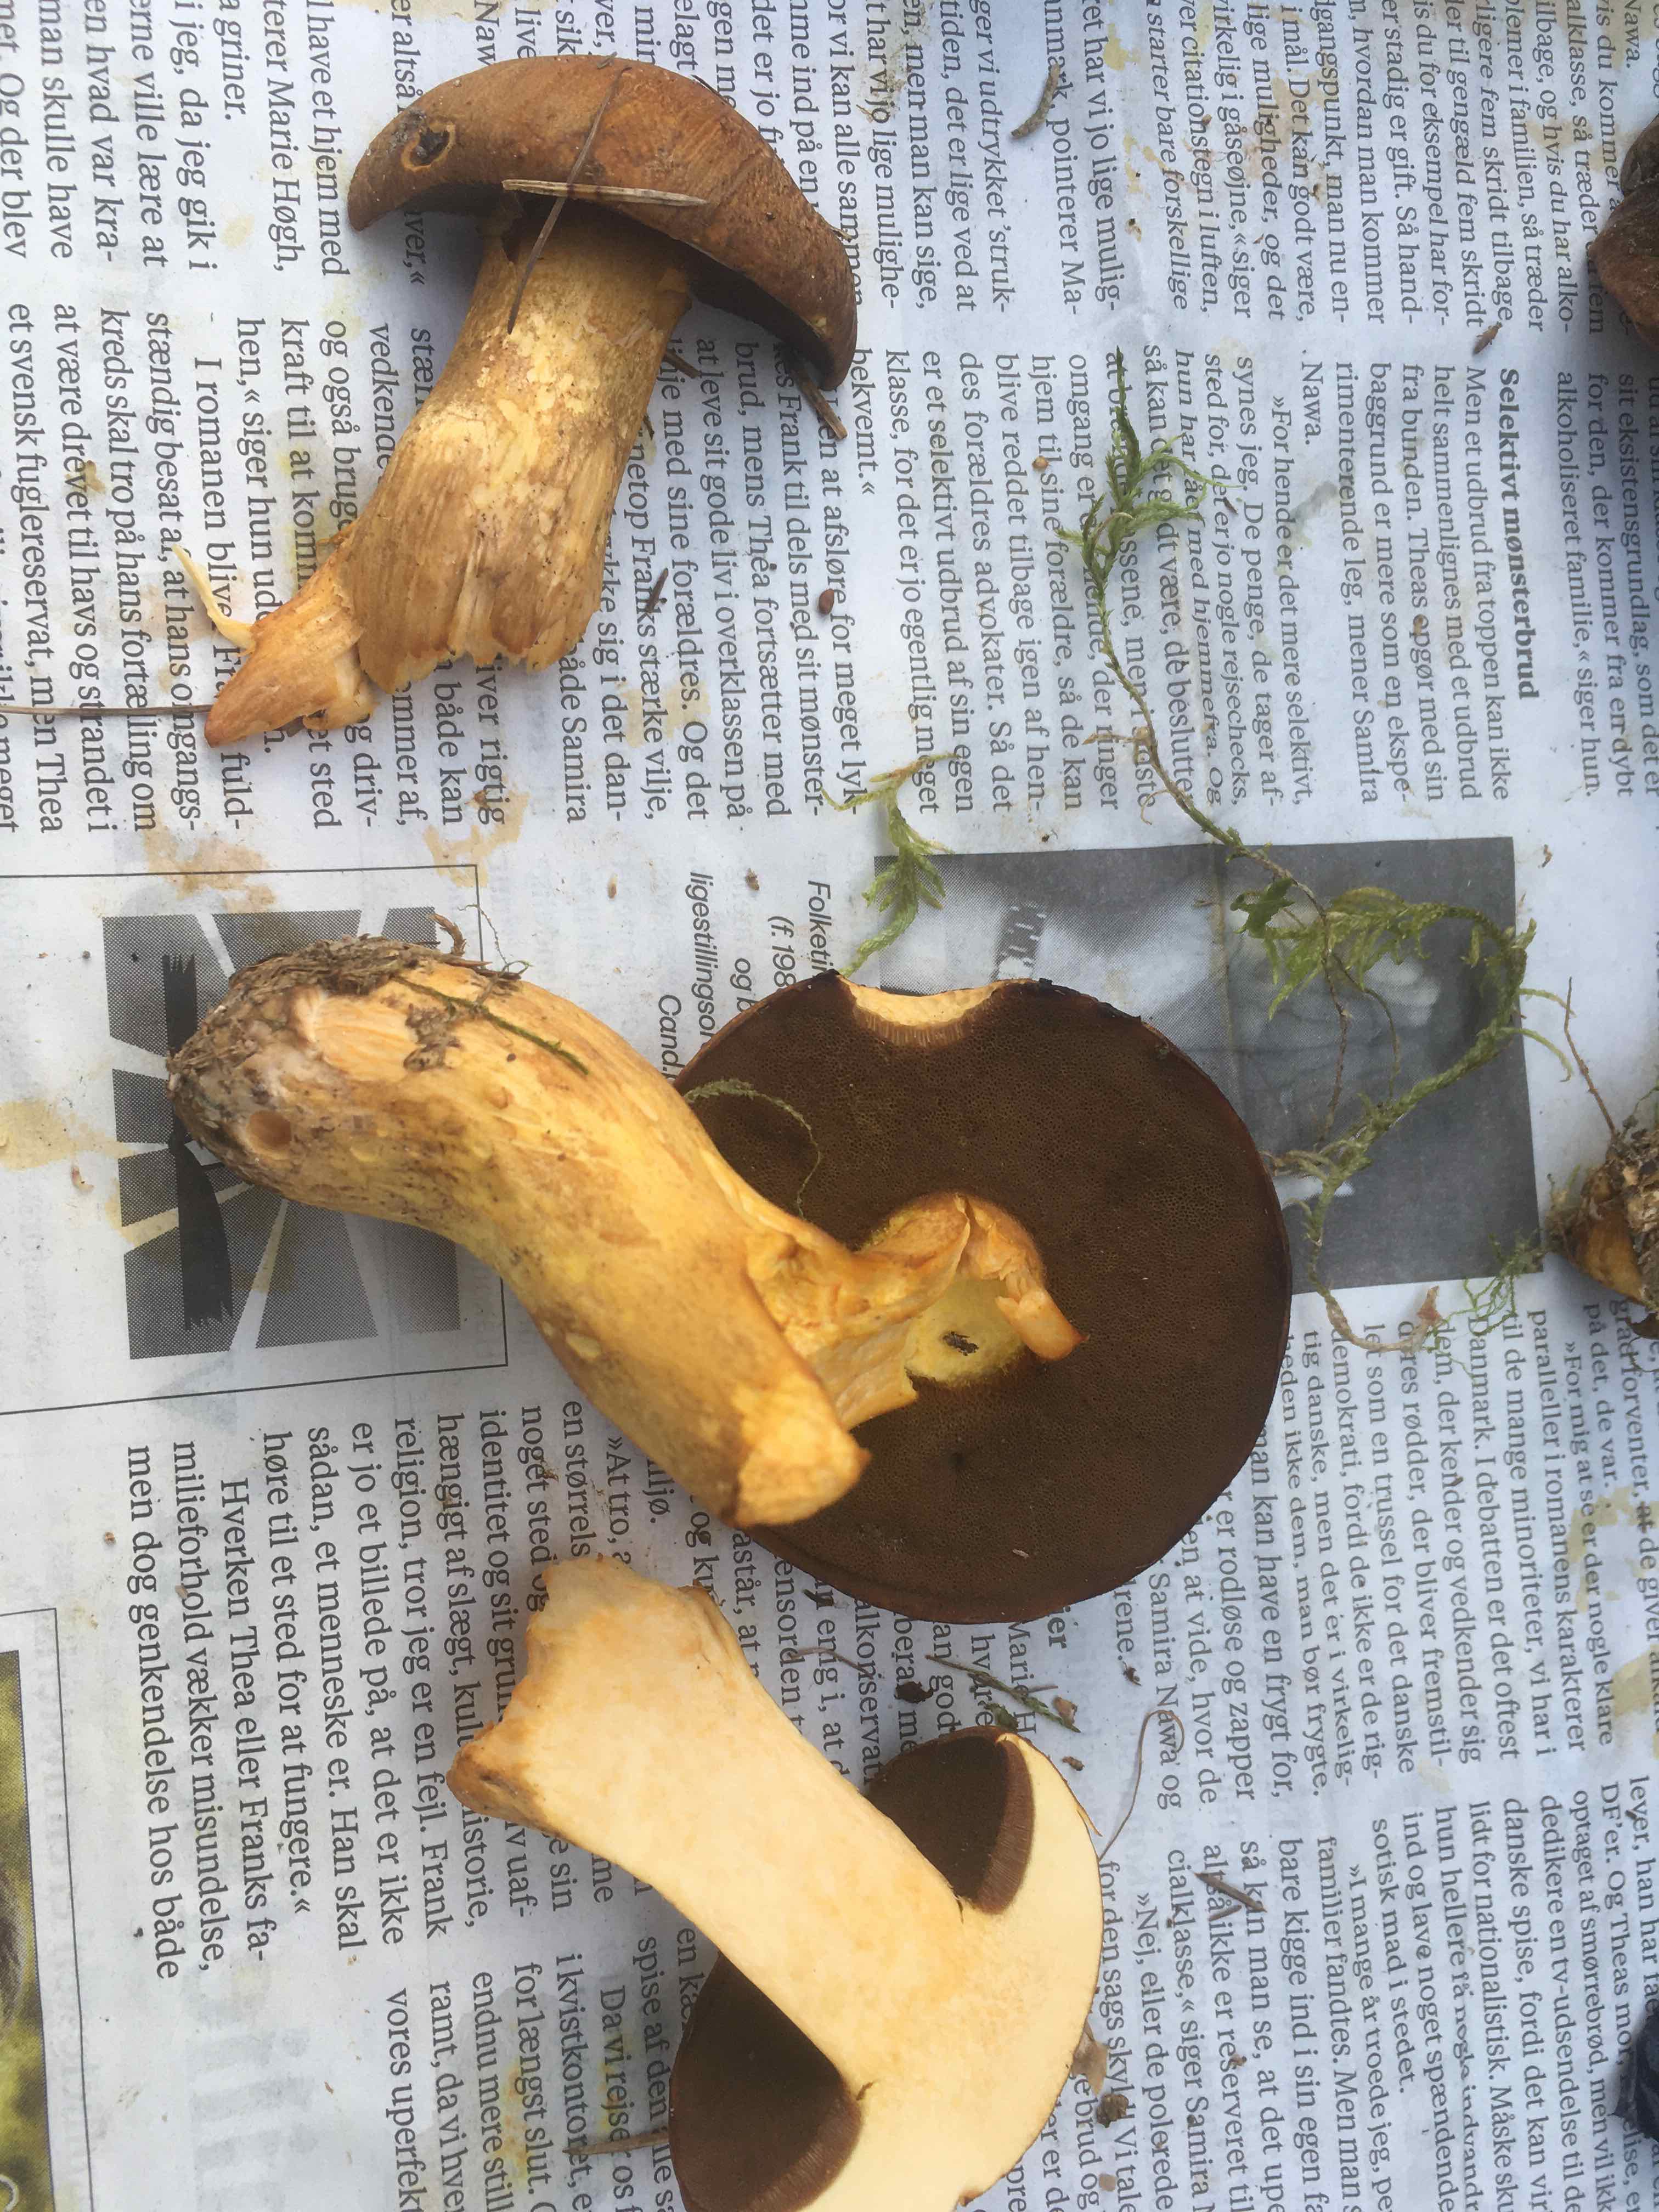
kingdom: Fungi
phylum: Basidiomycota
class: Agaricomycetes
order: Boletales
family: Suillaceae
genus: Suillus
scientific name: Suillus variegatus
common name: broget slimrørhat
